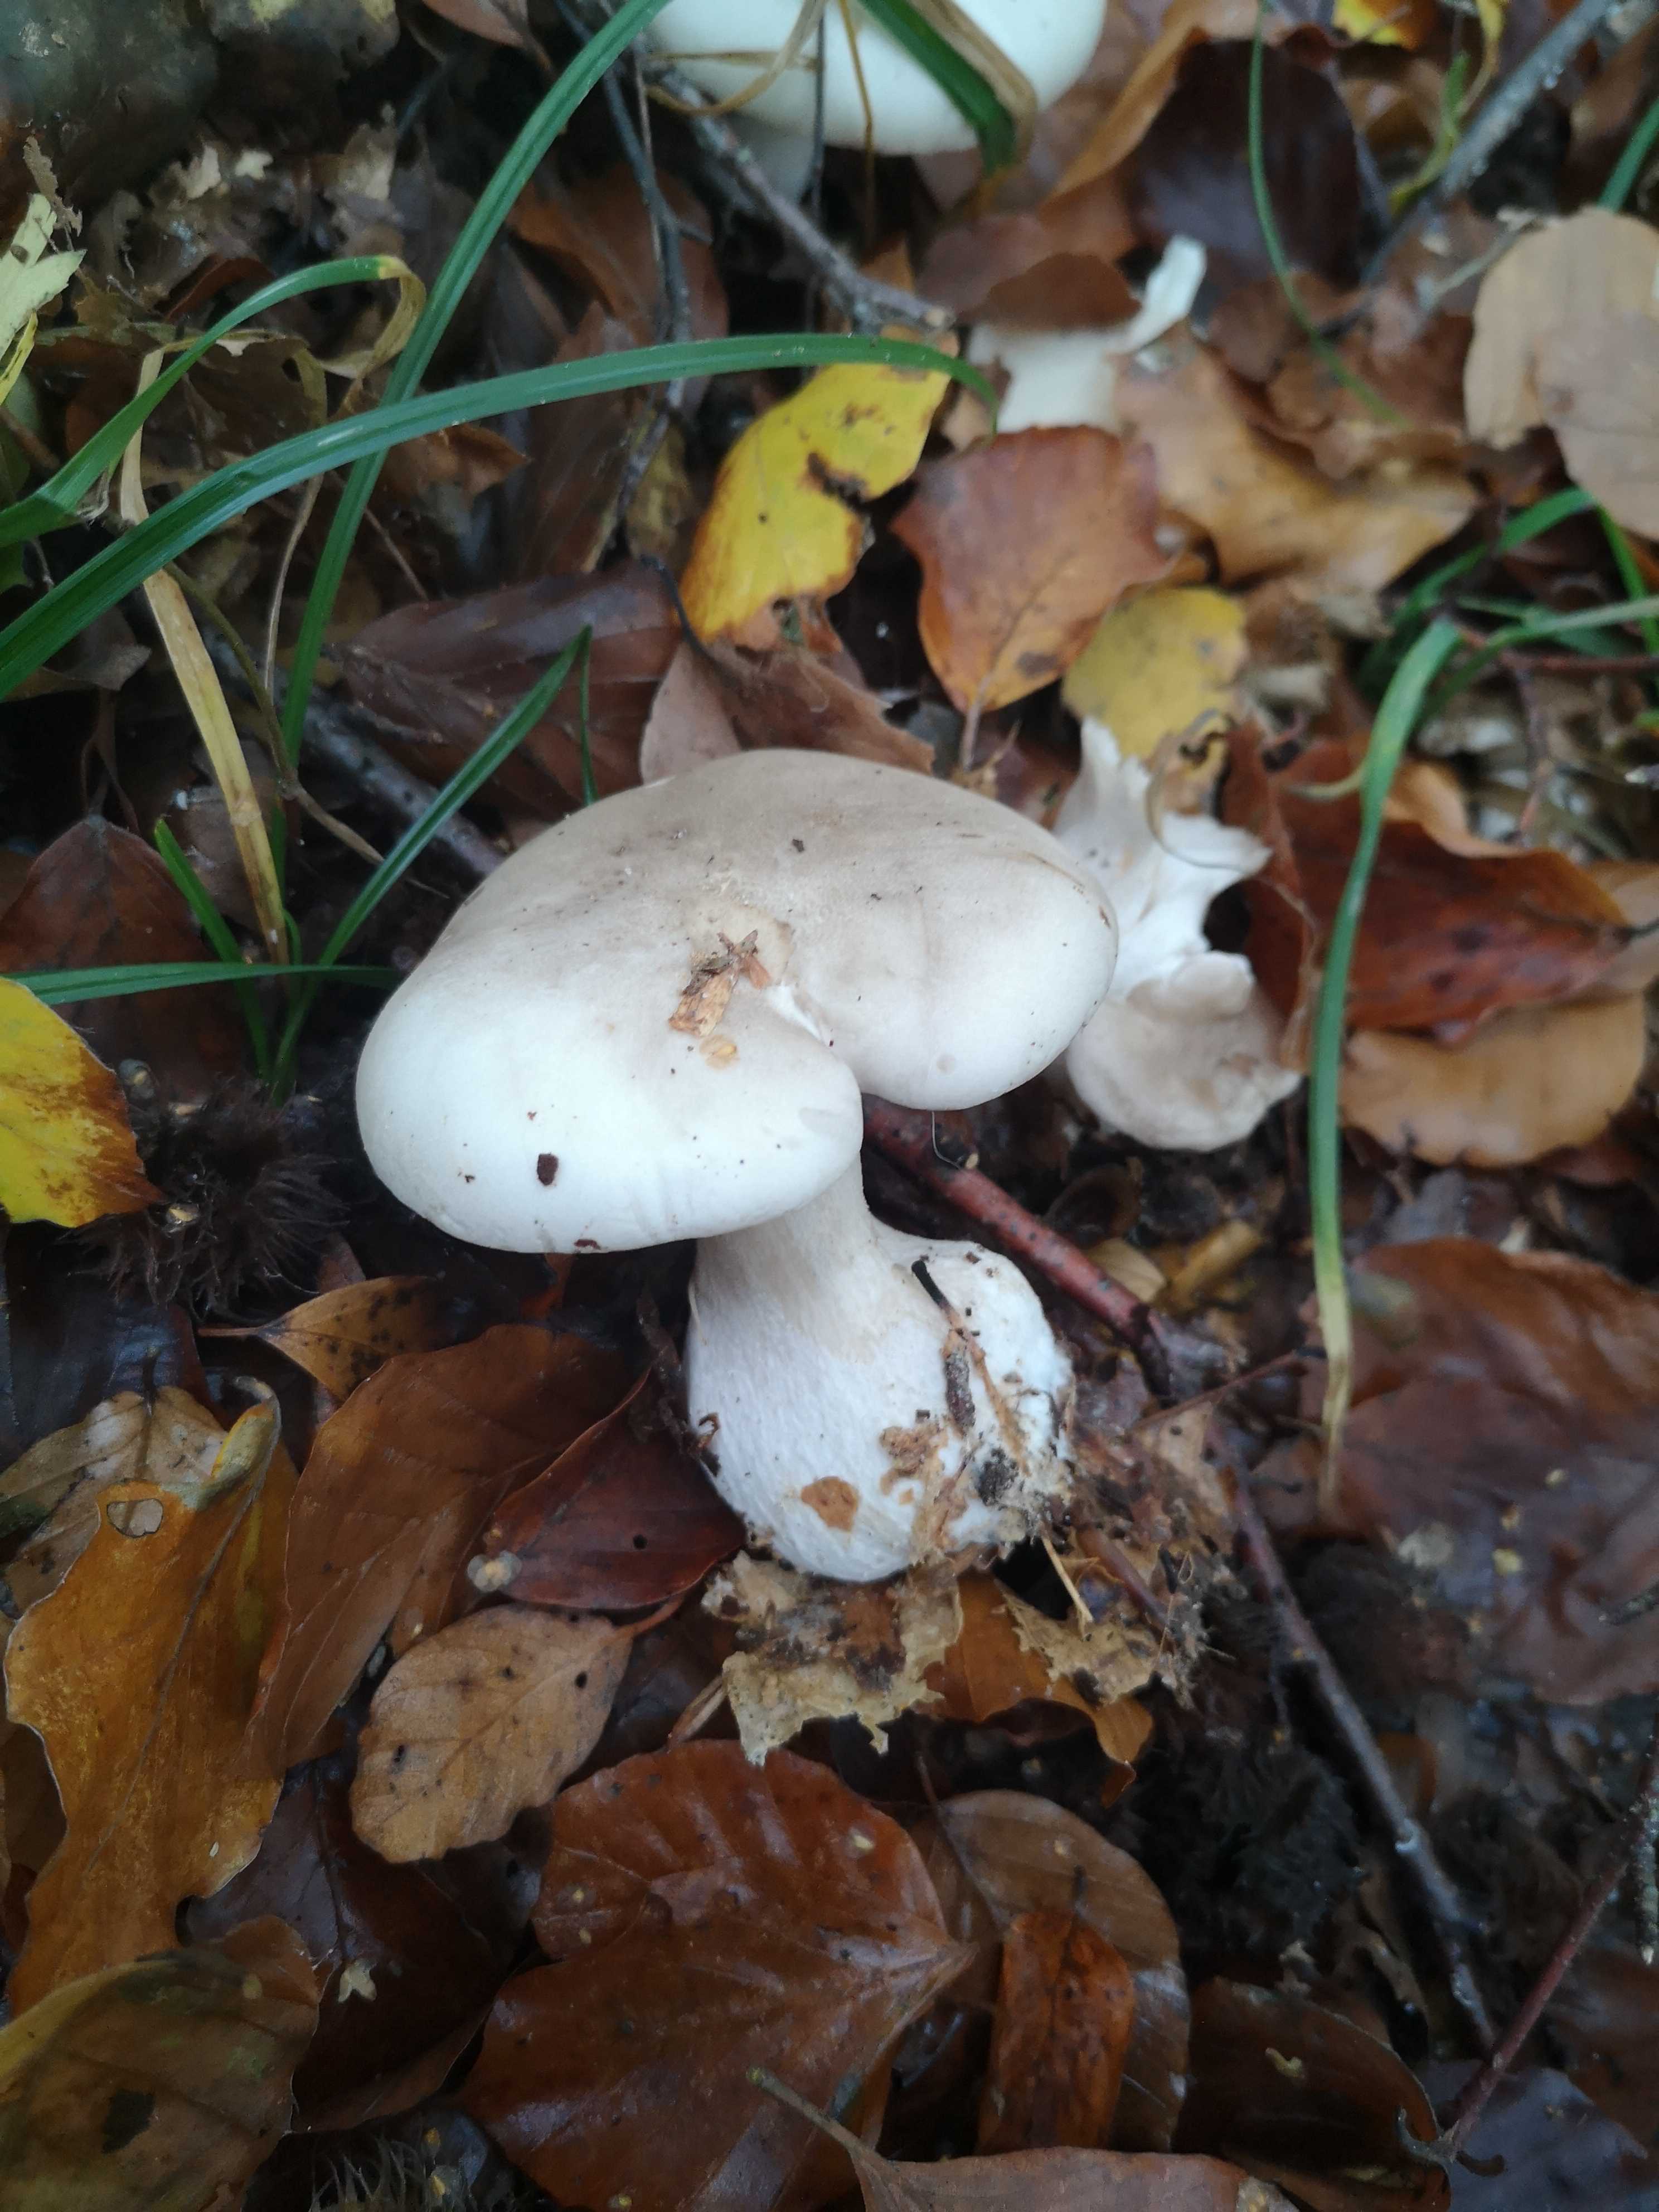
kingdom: Fungi
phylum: Basidiomycota
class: Agaricomycetes
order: Agaricales
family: Tricholomataceae
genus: Clitocybe
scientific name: Clitocybe nebularis
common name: tåge-tragthat
